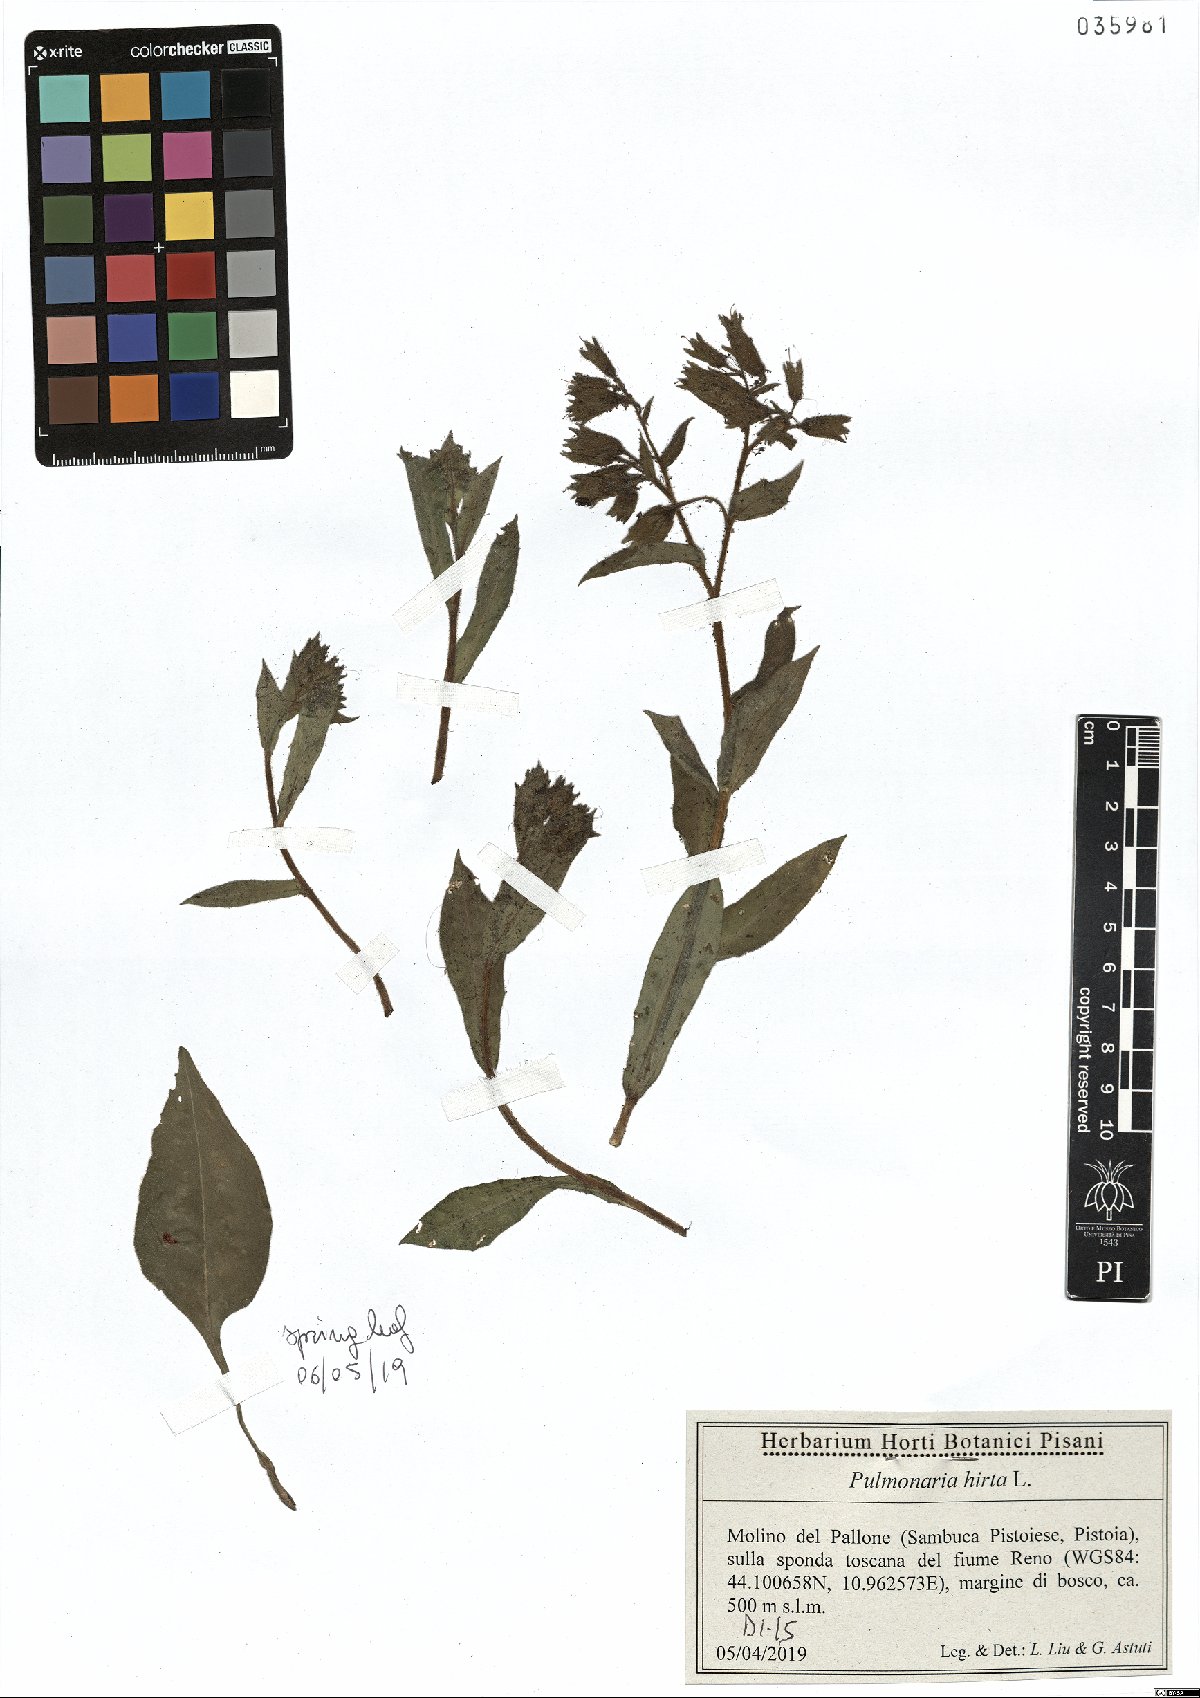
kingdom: Plantae
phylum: Tracheophyta
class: Magnoliopsida
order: Boraginales
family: Boraginaceae
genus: Pulmonaria
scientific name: Pulmonaria hirta
